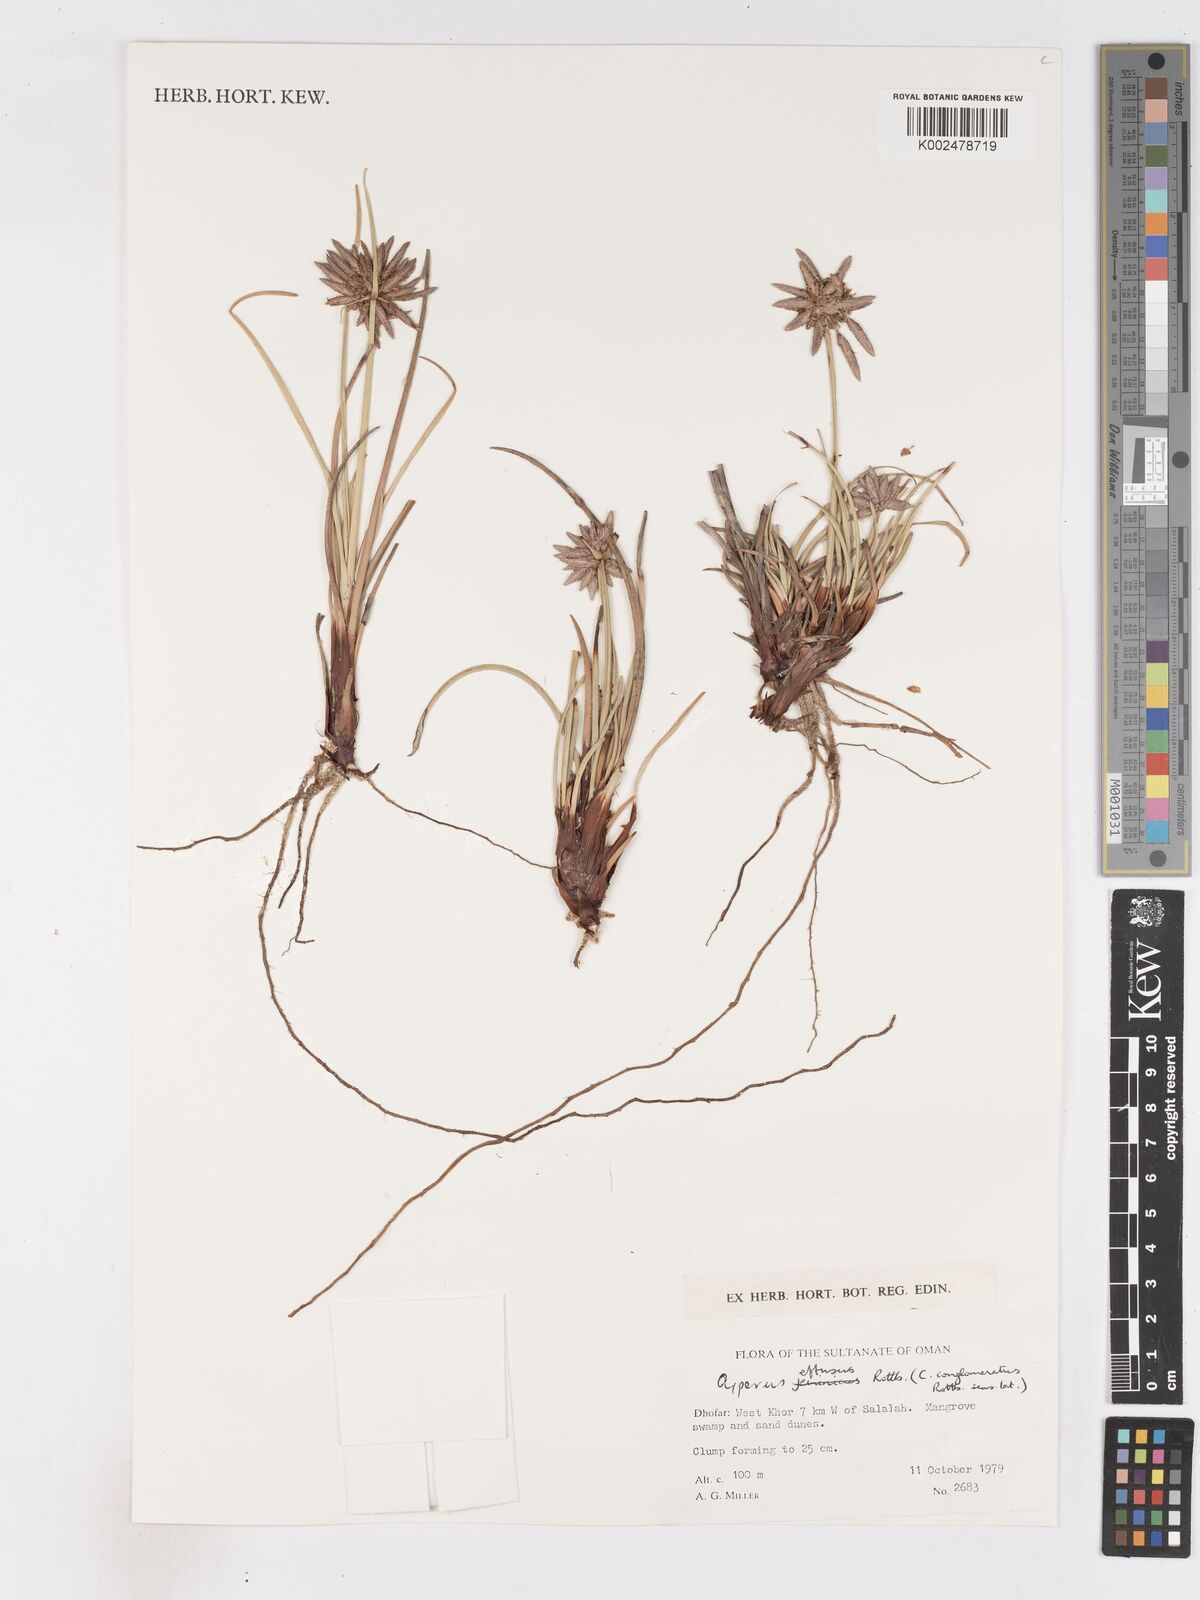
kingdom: Plantae
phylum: Tracheophyta
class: Liliopsida
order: Poales
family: Cyperaceae
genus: Cyperus
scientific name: Cyperus conglomeratus
